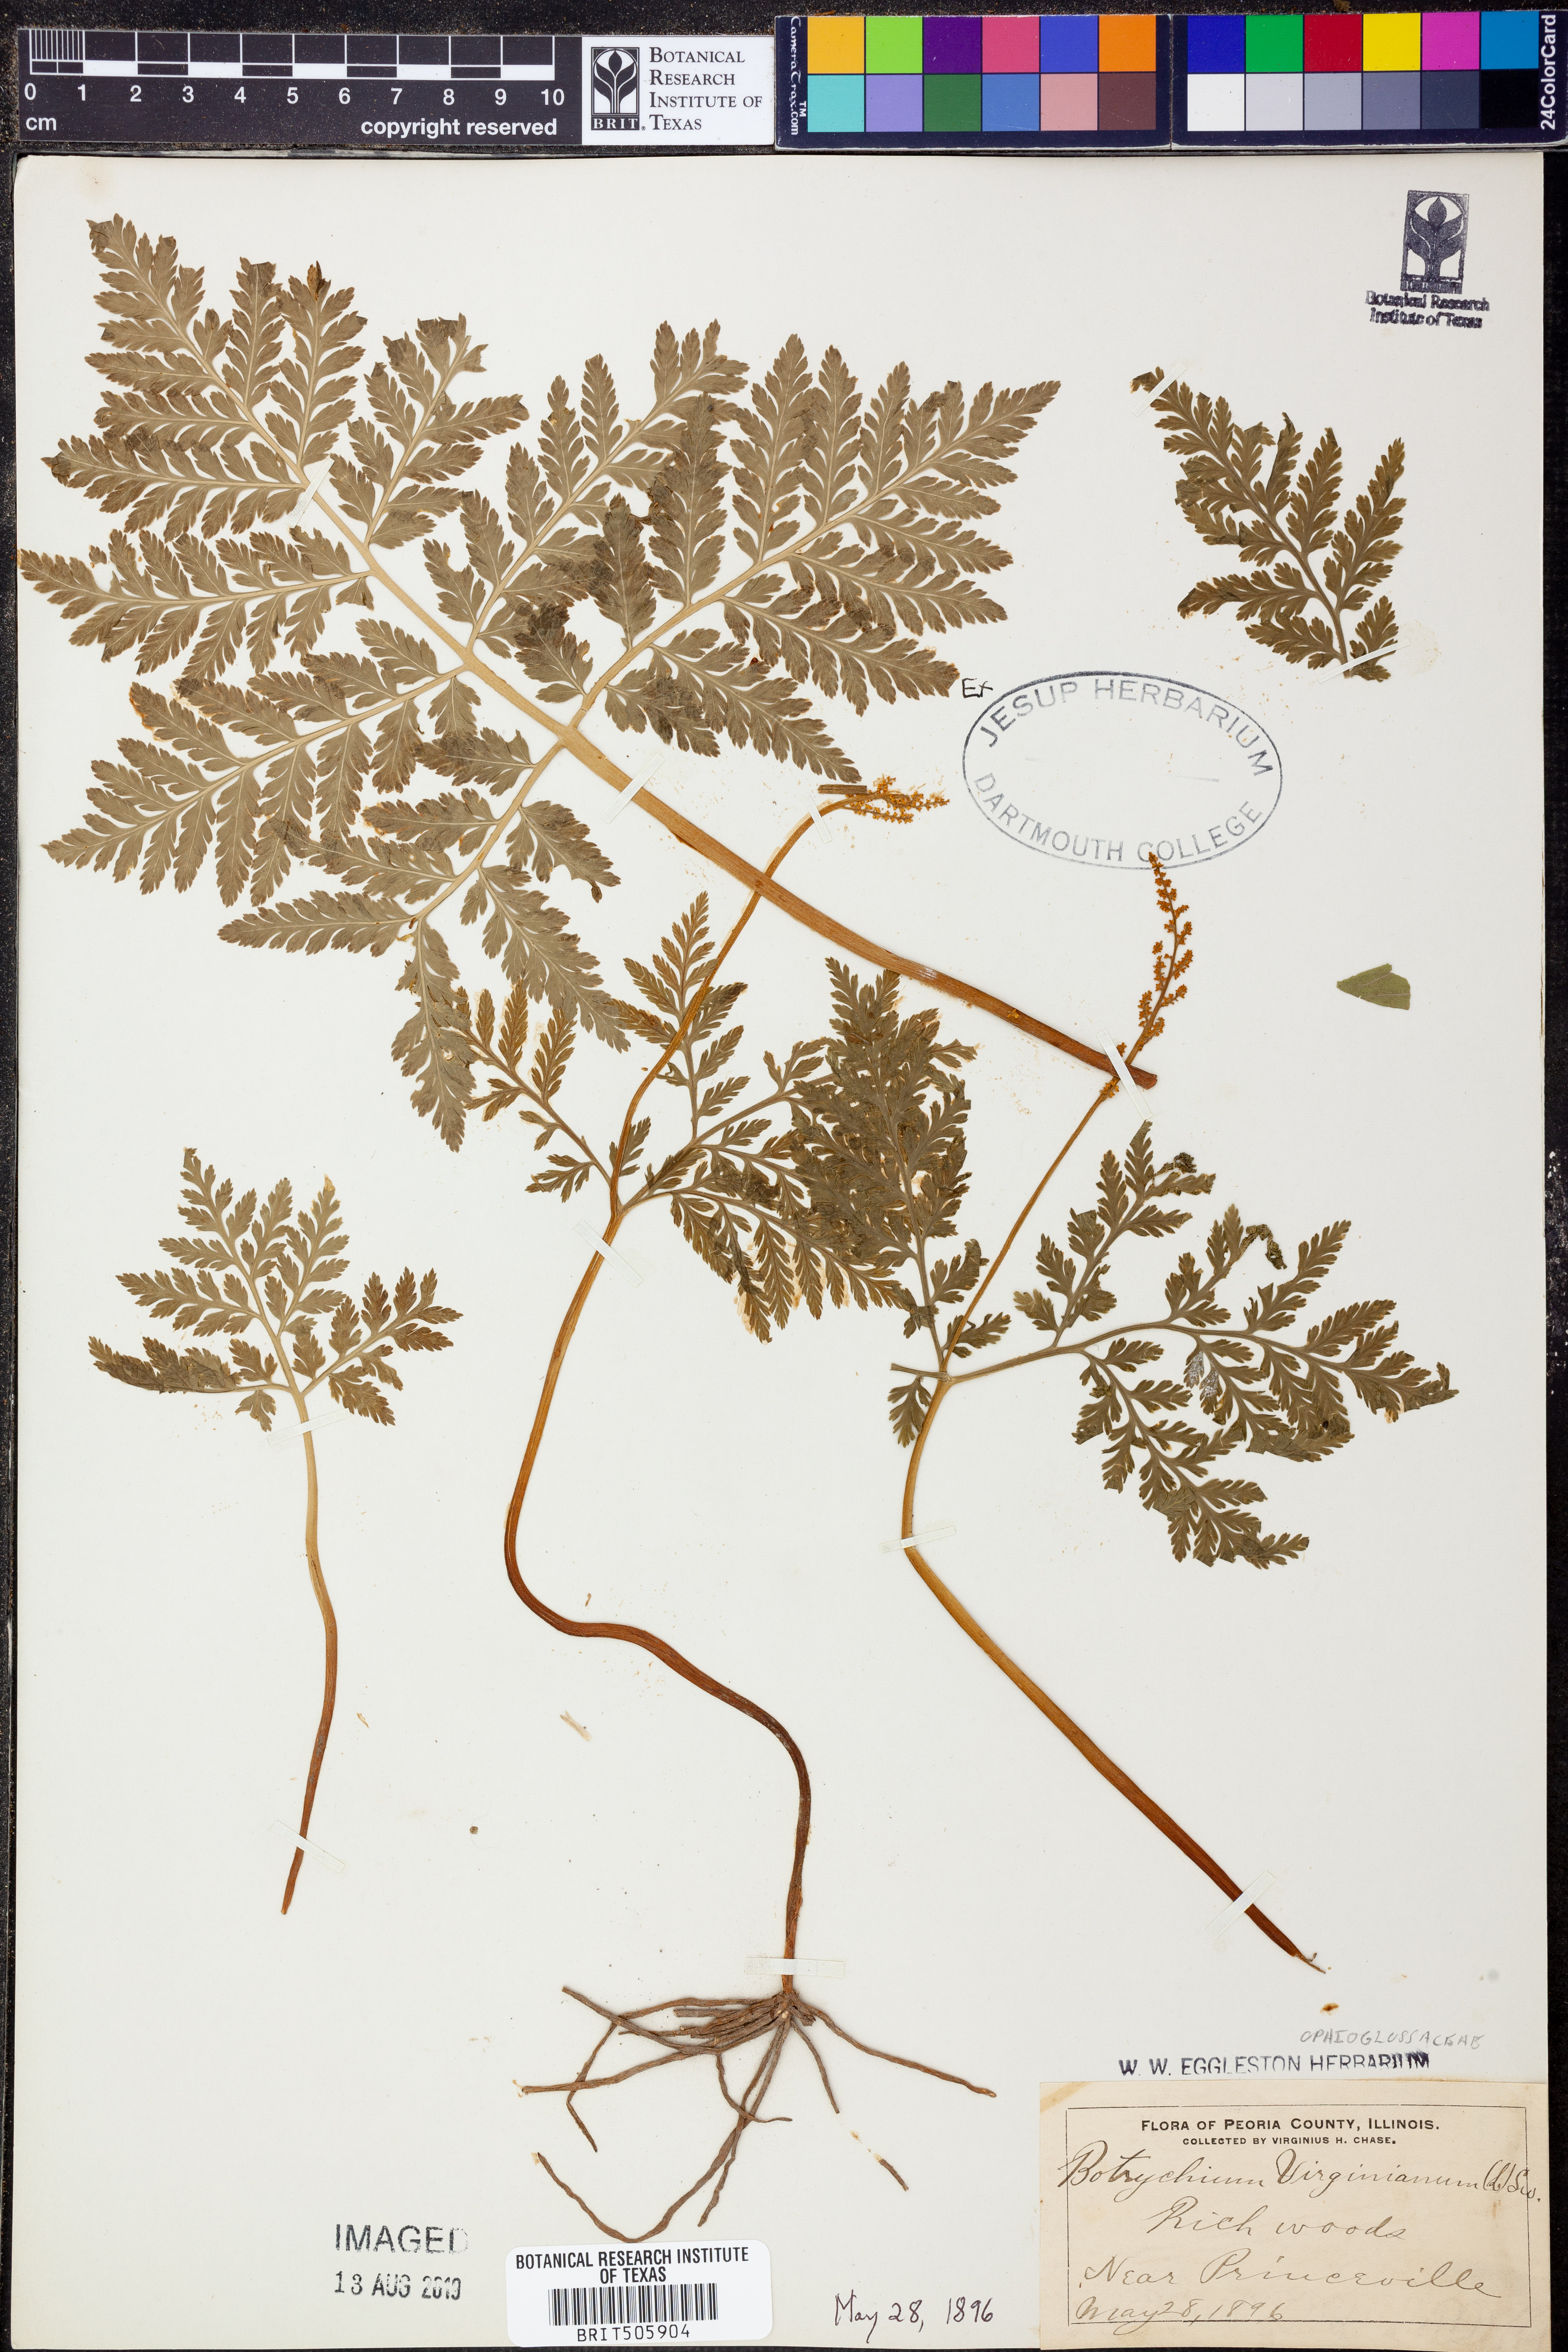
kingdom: Plantae
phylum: Tracheophyta
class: Polypodiopsida
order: Ophioglossales
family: Ophioglossaceae
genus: Botrypus
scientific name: Botrypus virginianus
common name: Common grapefern
